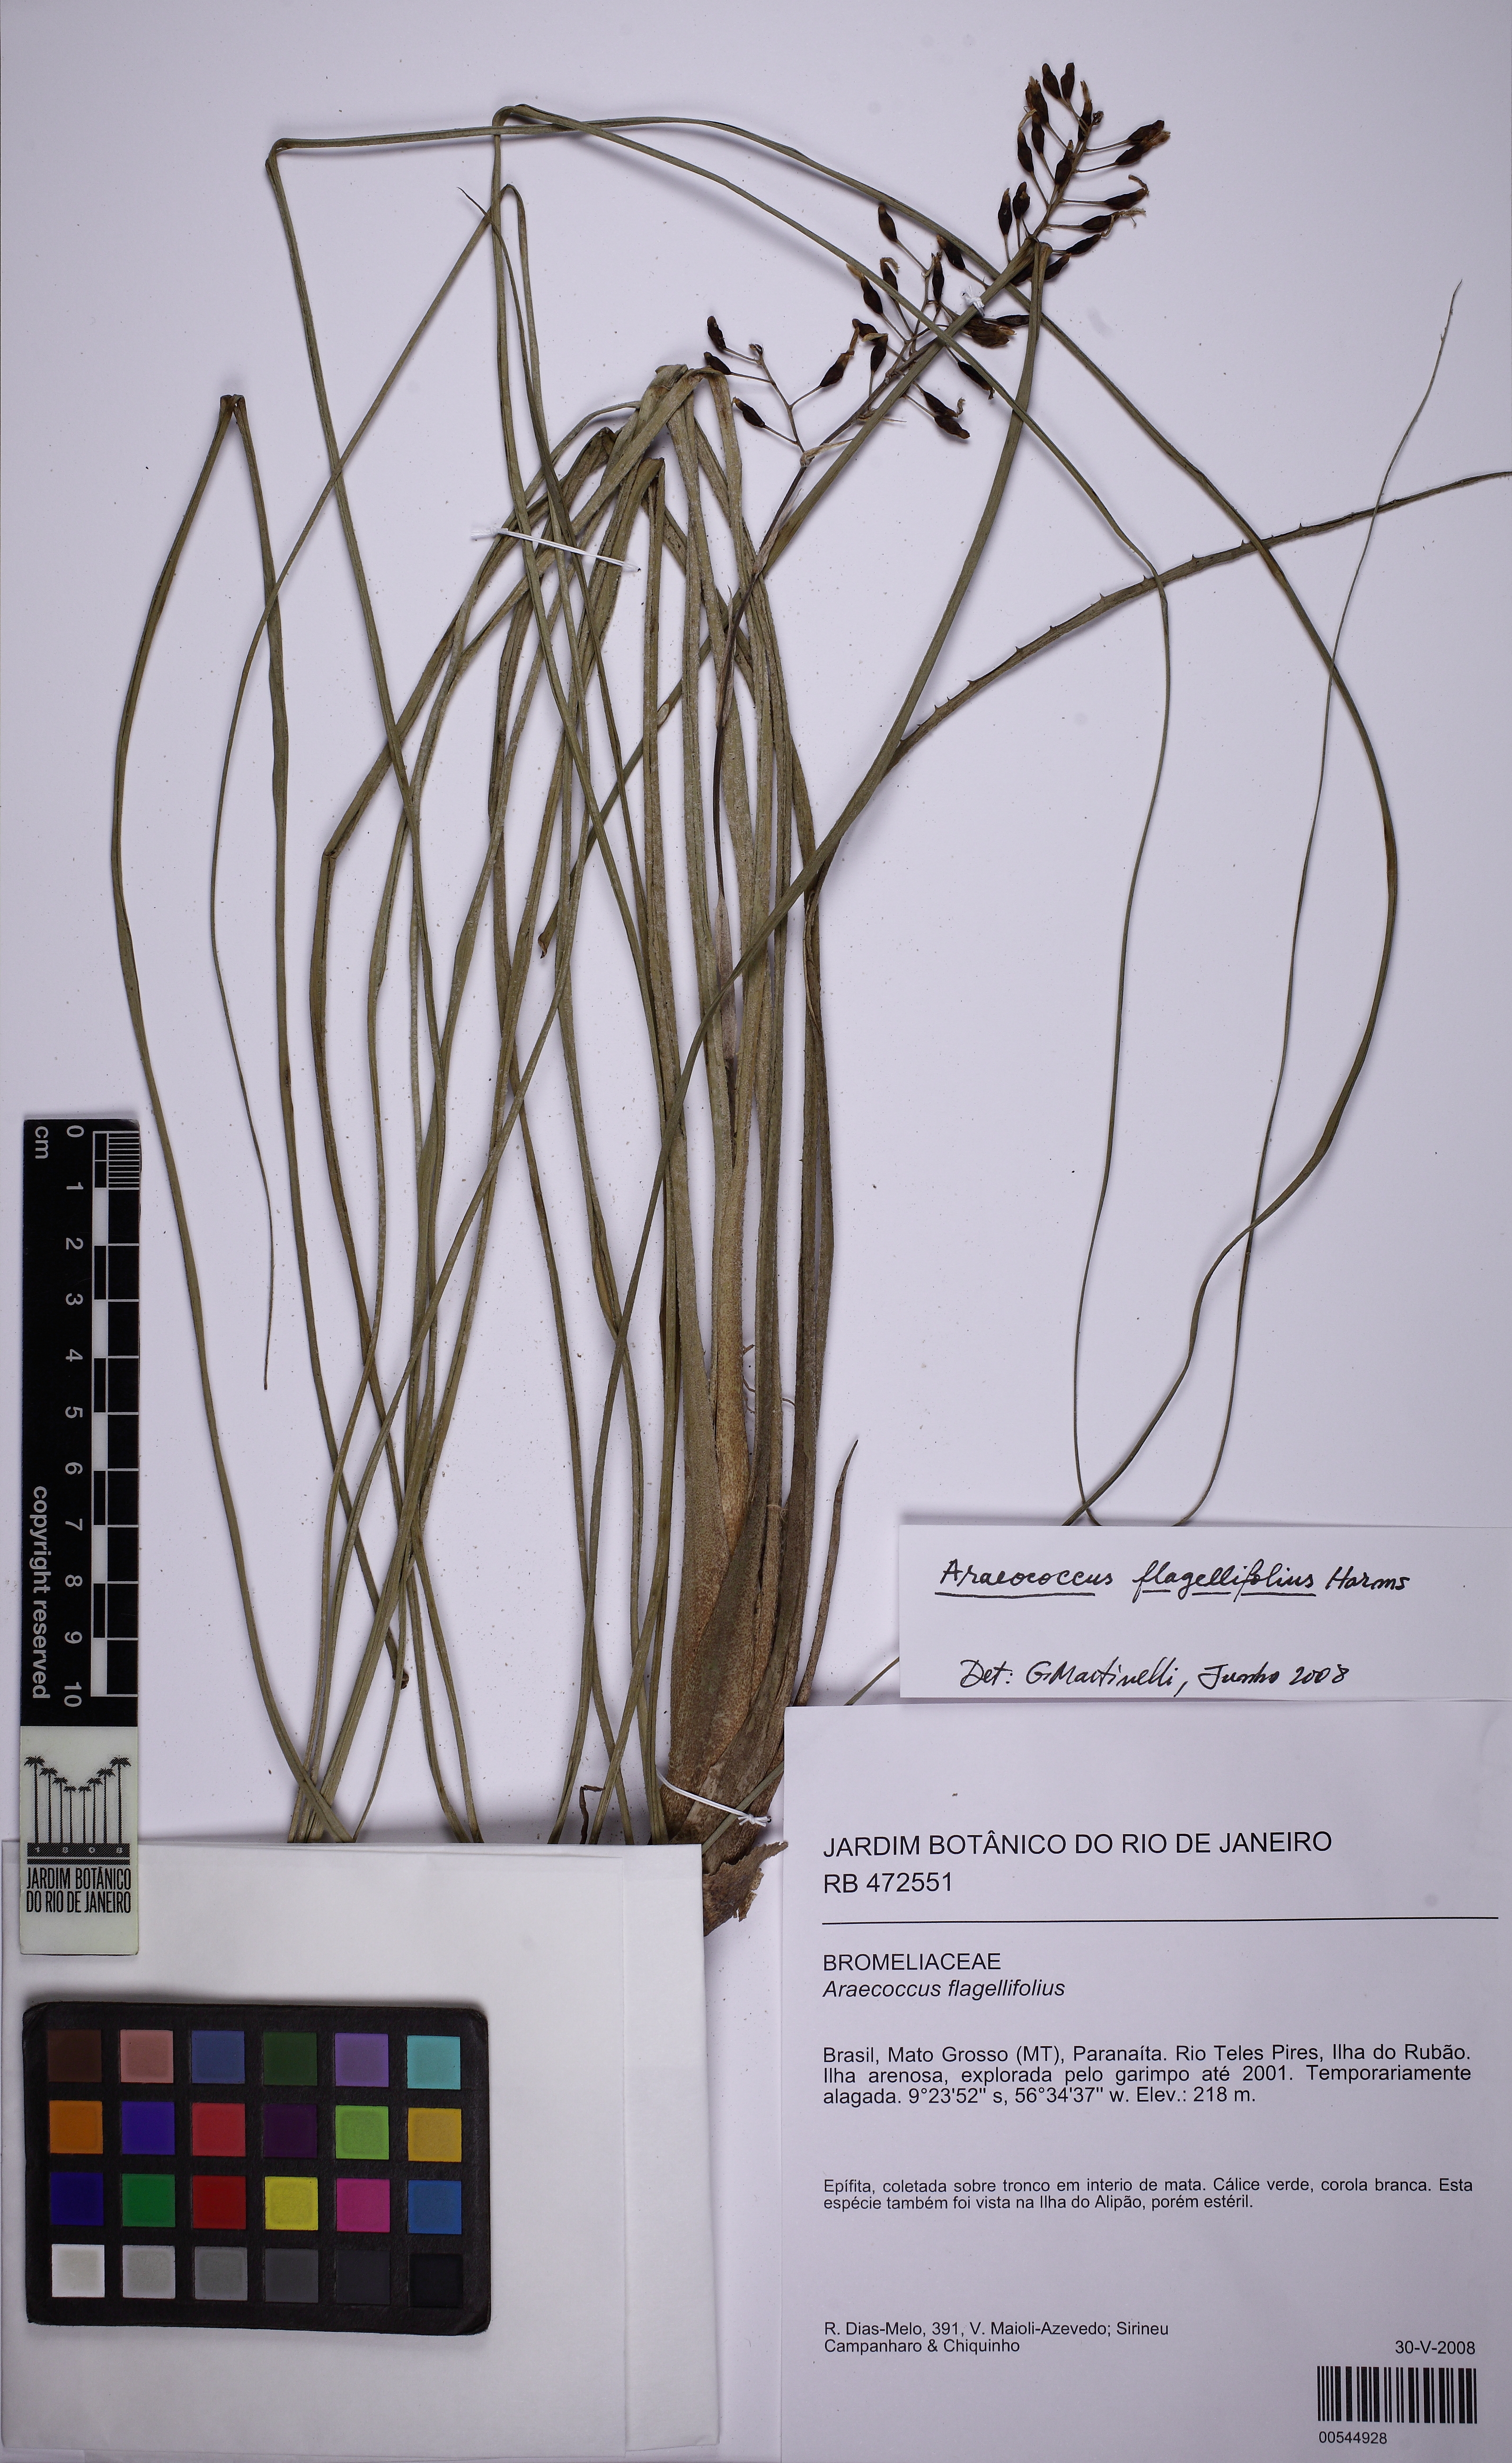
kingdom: Plantae
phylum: Tracheophyta
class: Liliopsida
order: Poales
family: Bromeliaceae
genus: Araeococcus
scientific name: Araeococcus flagellifolius
